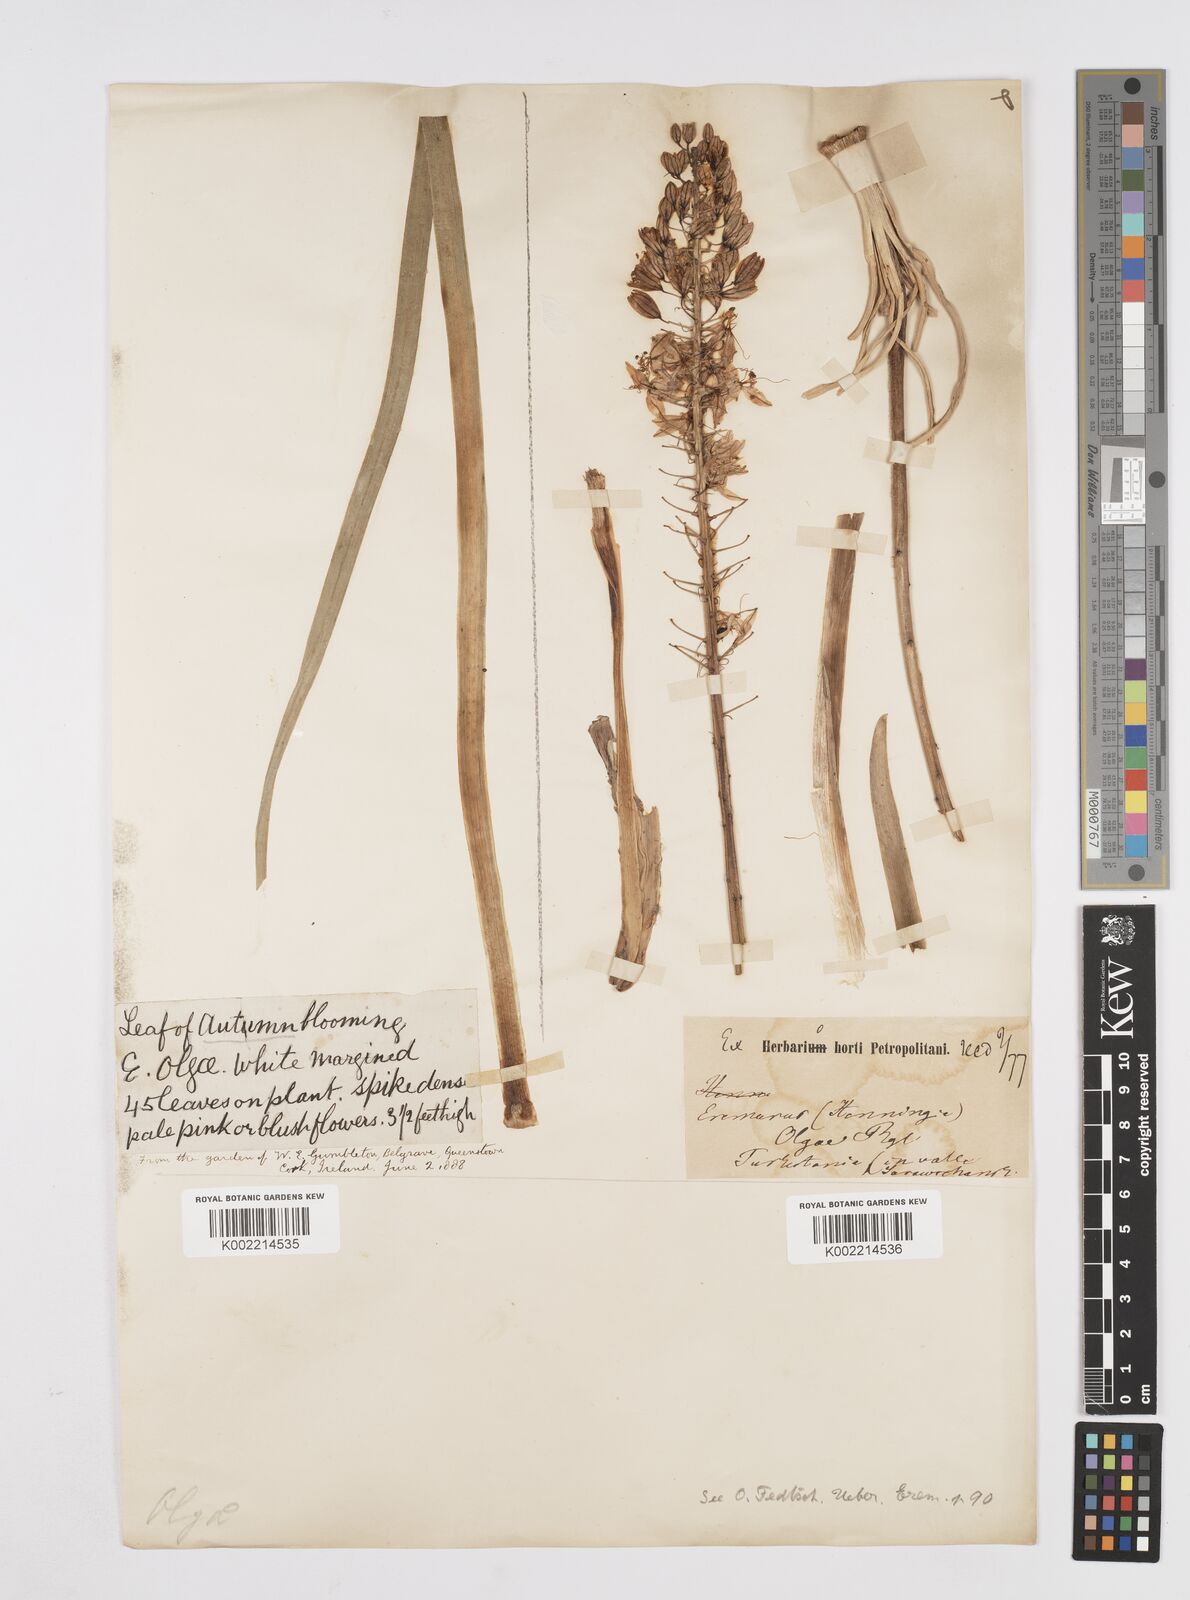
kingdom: Plantae
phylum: Tracheophyta
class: Liliopsida
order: Asparagales
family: Asphodelaceae
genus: Eremurus
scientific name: Eremurus olgae
